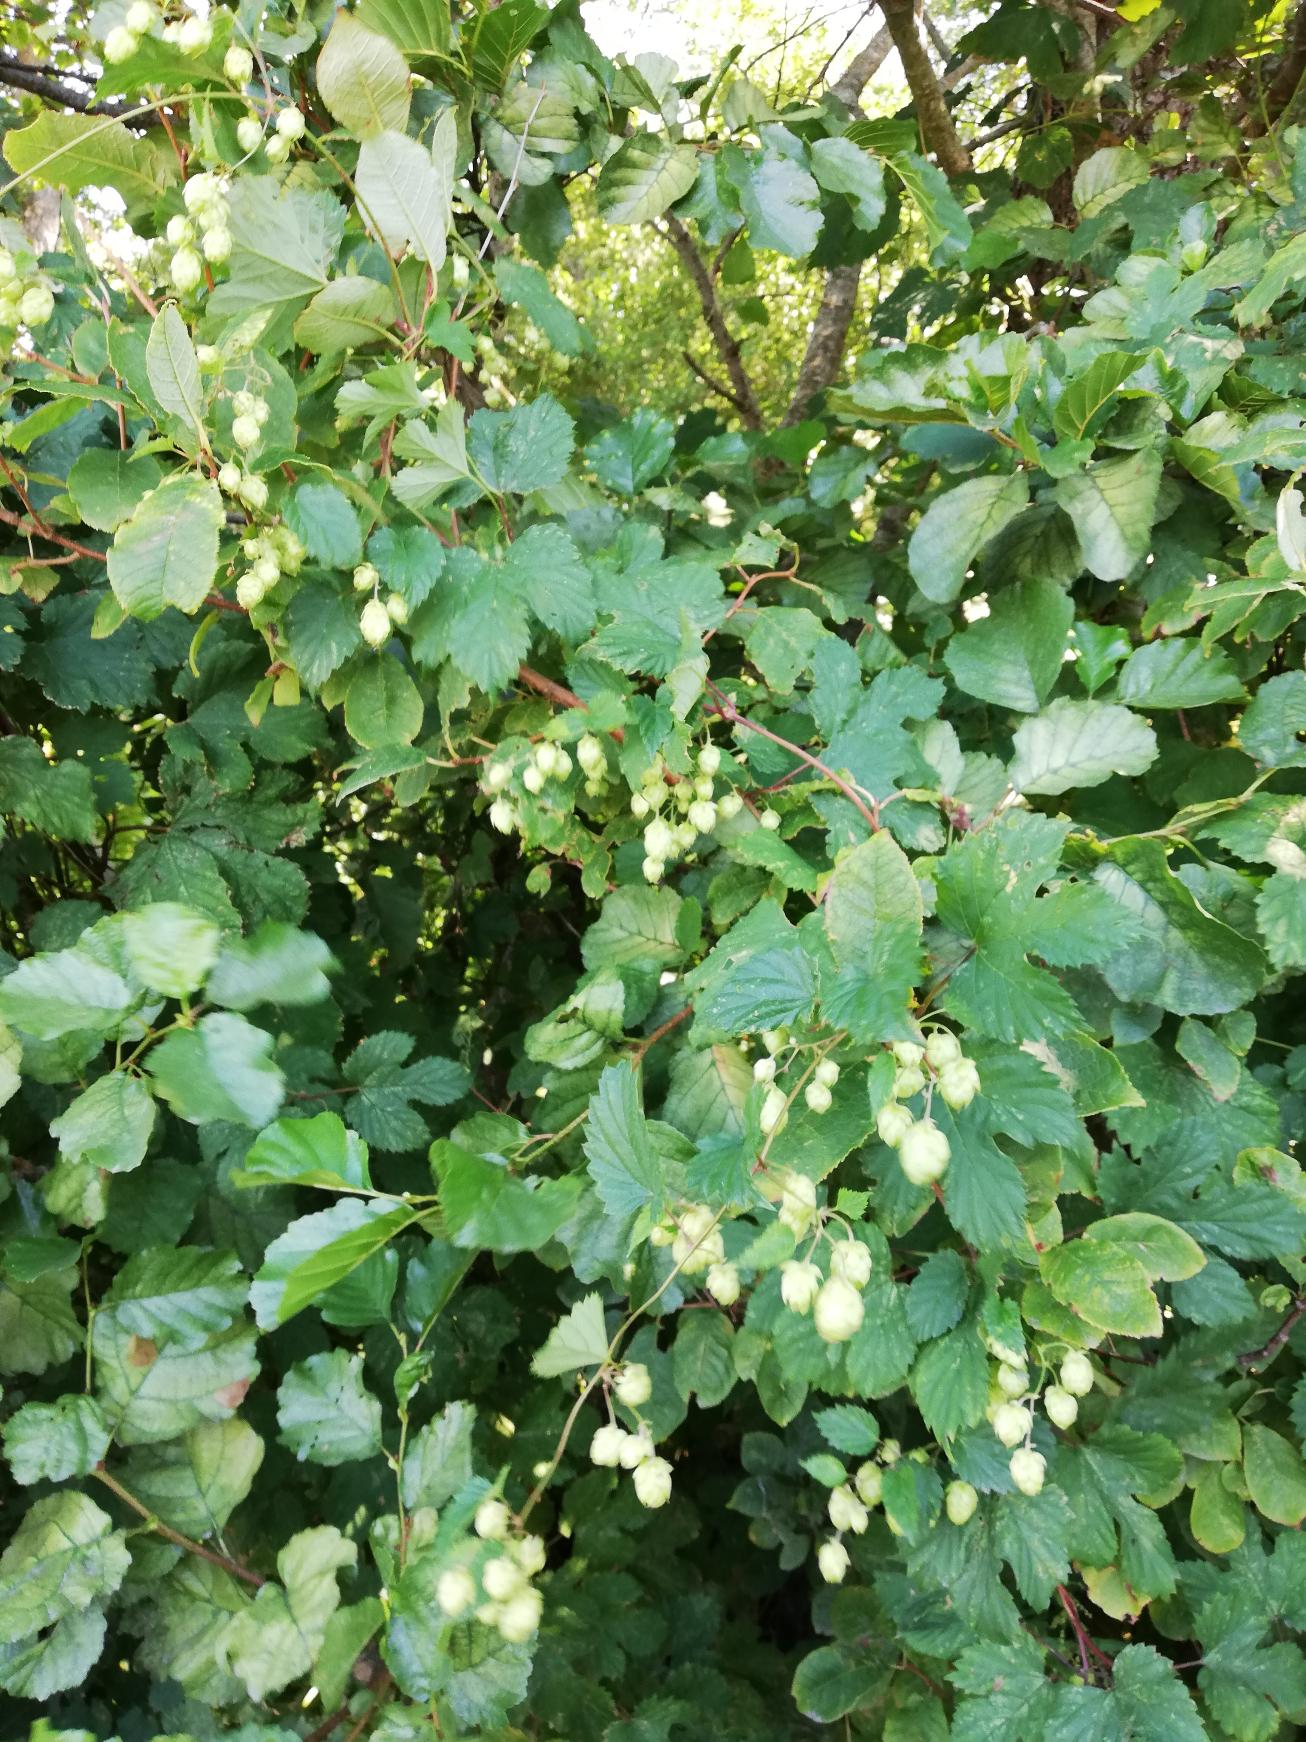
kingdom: Plantae
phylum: Tracheophyta
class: Magnoliopsida
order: Rosales
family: Cannabaceae
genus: Humulus
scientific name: Humulus lupulus
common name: Humle
